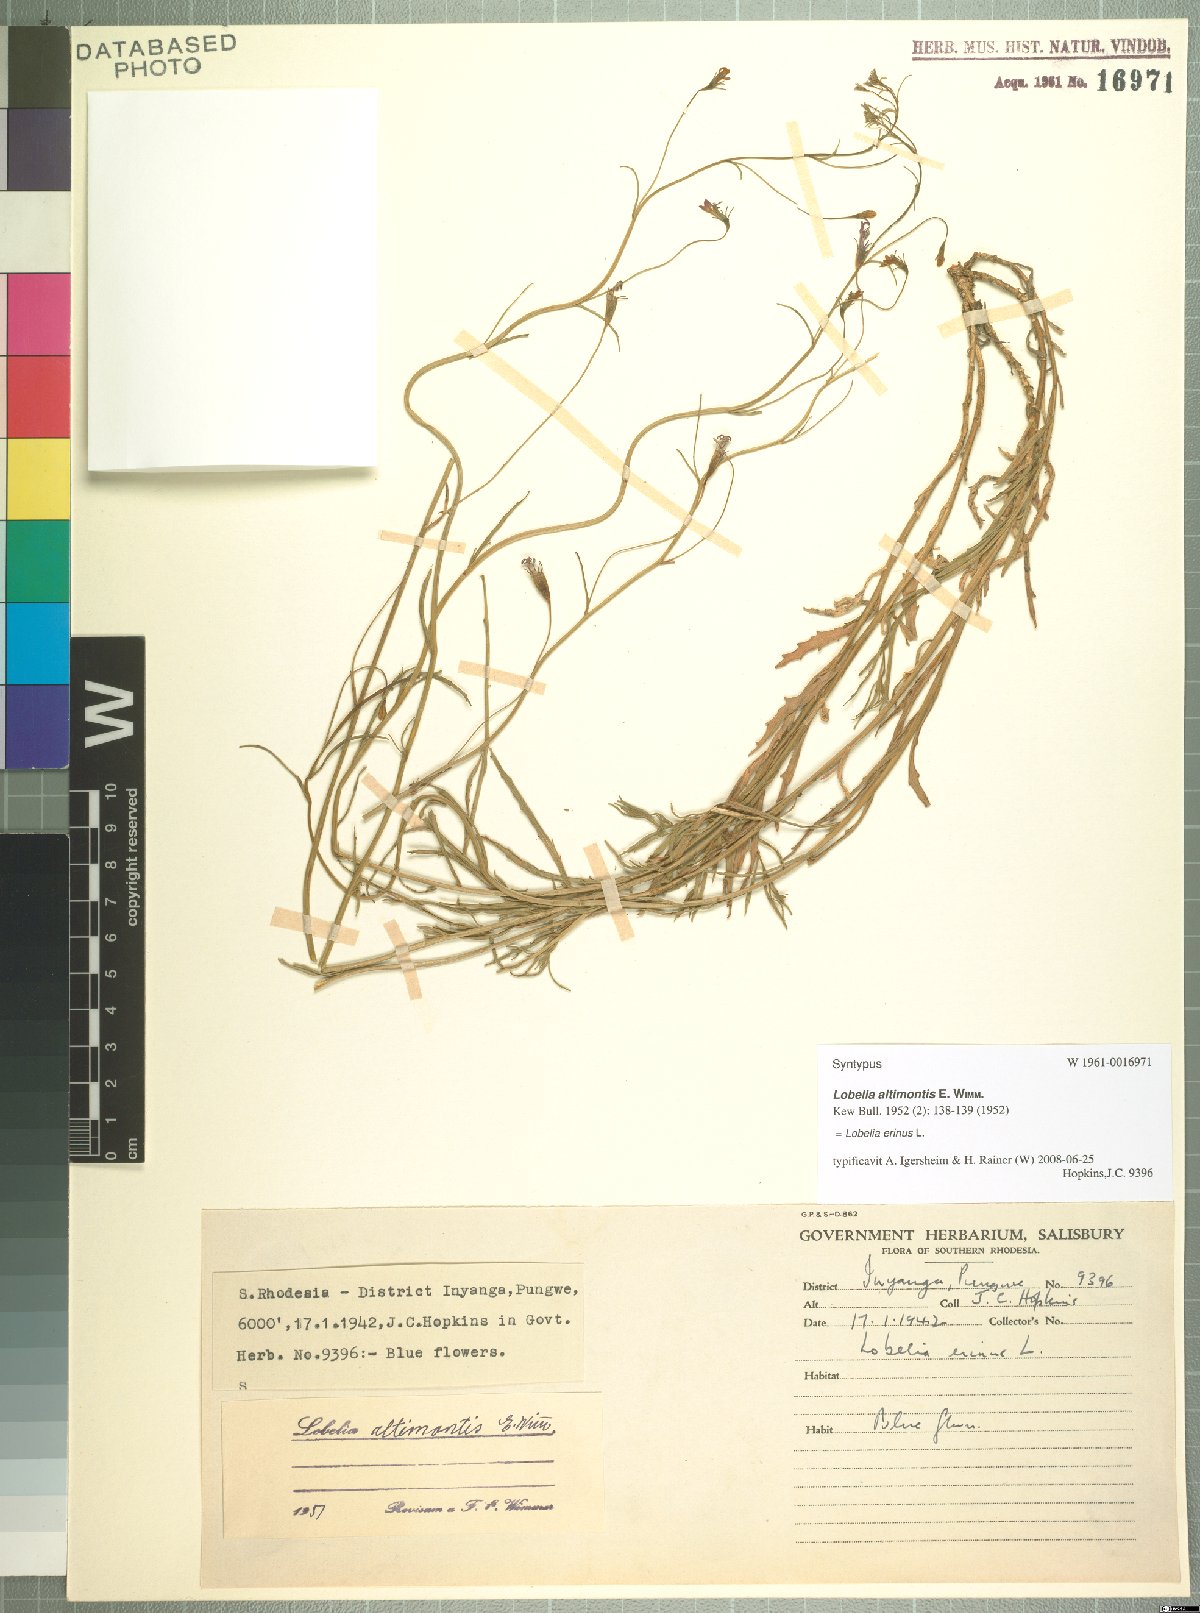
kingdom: Plantae
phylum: Tracheophyta
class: Magnoliopsida
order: Asterales
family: Campanulaceae
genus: Lobelia
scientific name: Lobelia erinus
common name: Edging lobelia
